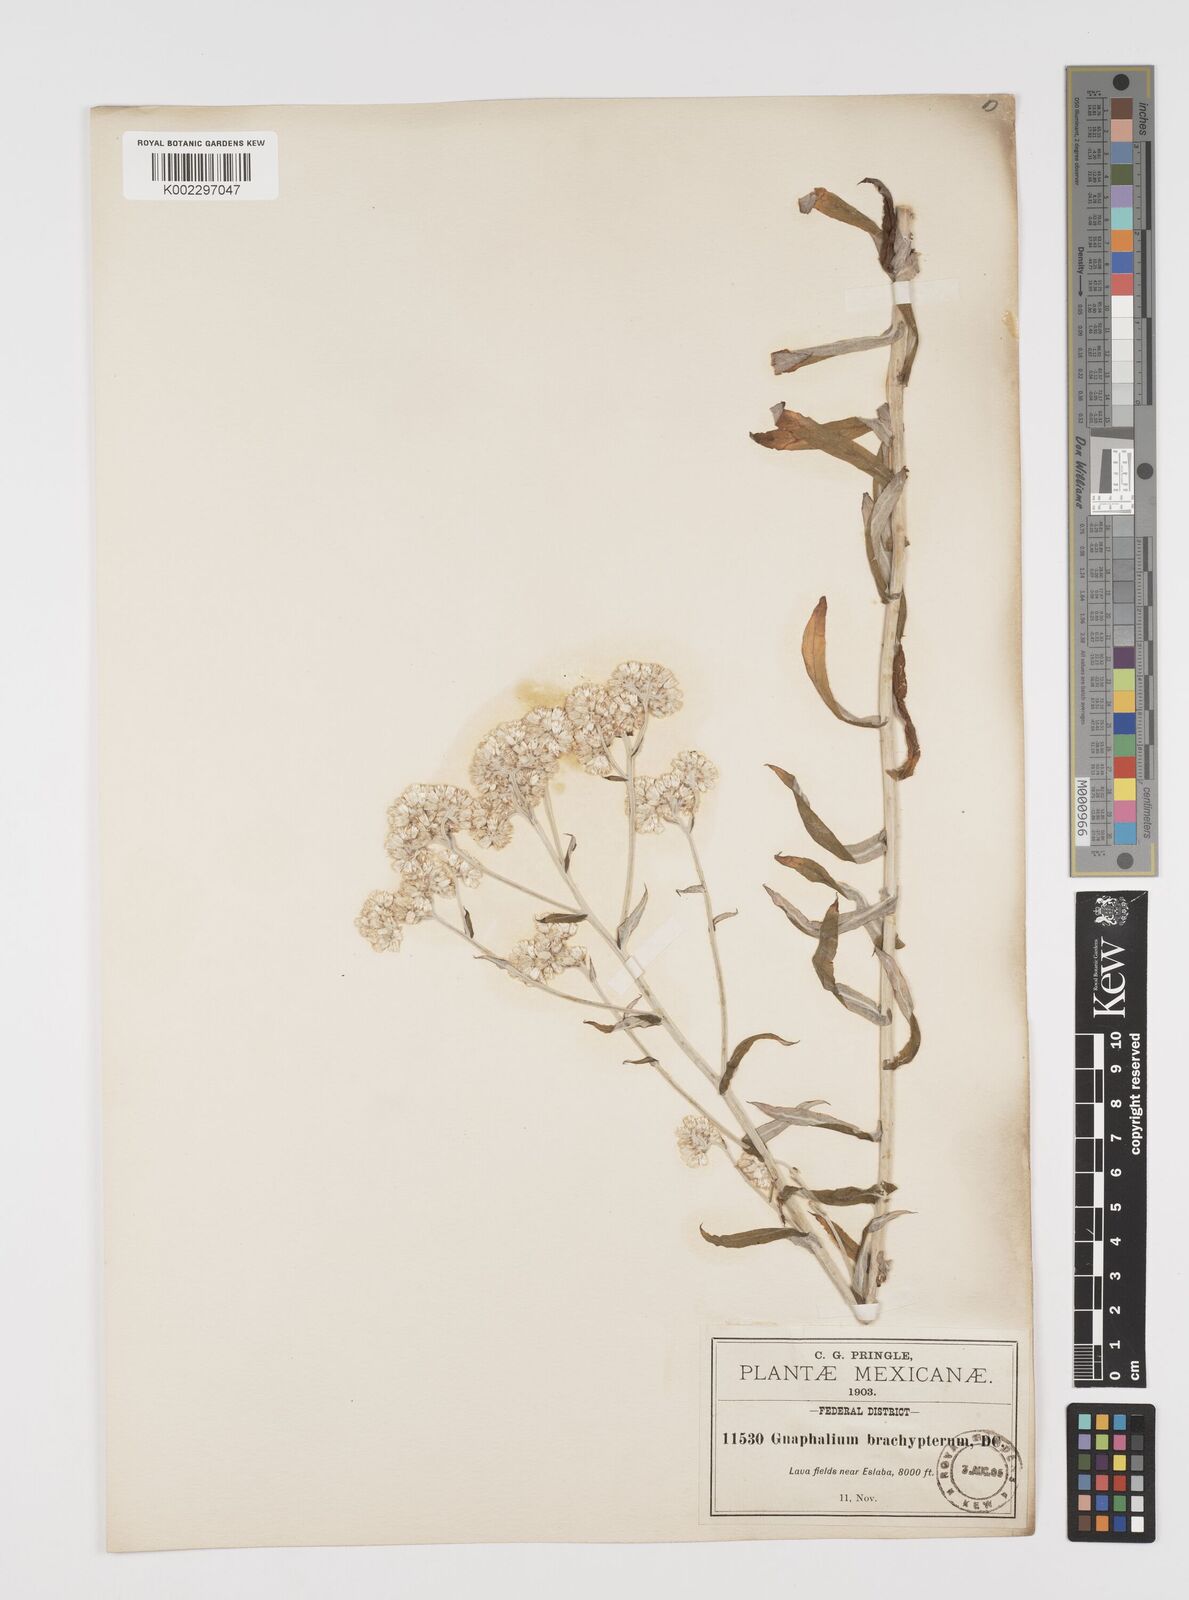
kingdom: Plantae
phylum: Tracheophyta
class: Magnoliopsida
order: Asterales
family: Asteraceae
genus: Pseudognaphalium
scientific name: Pseudognaphalium brachypterum
